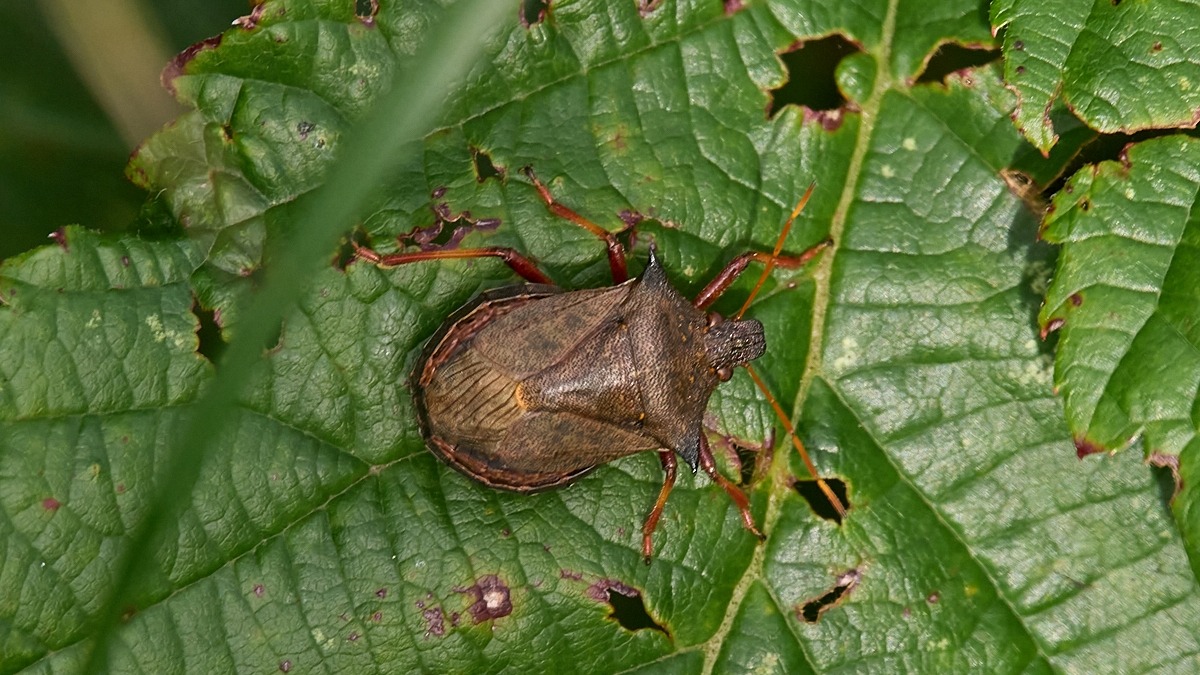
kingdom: Animalia
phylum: Arthropoda
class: Insecta
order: Hemiptera
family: Pentatomidae
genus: Picromerus
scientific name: Picromerus bidens
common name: Torntæge
